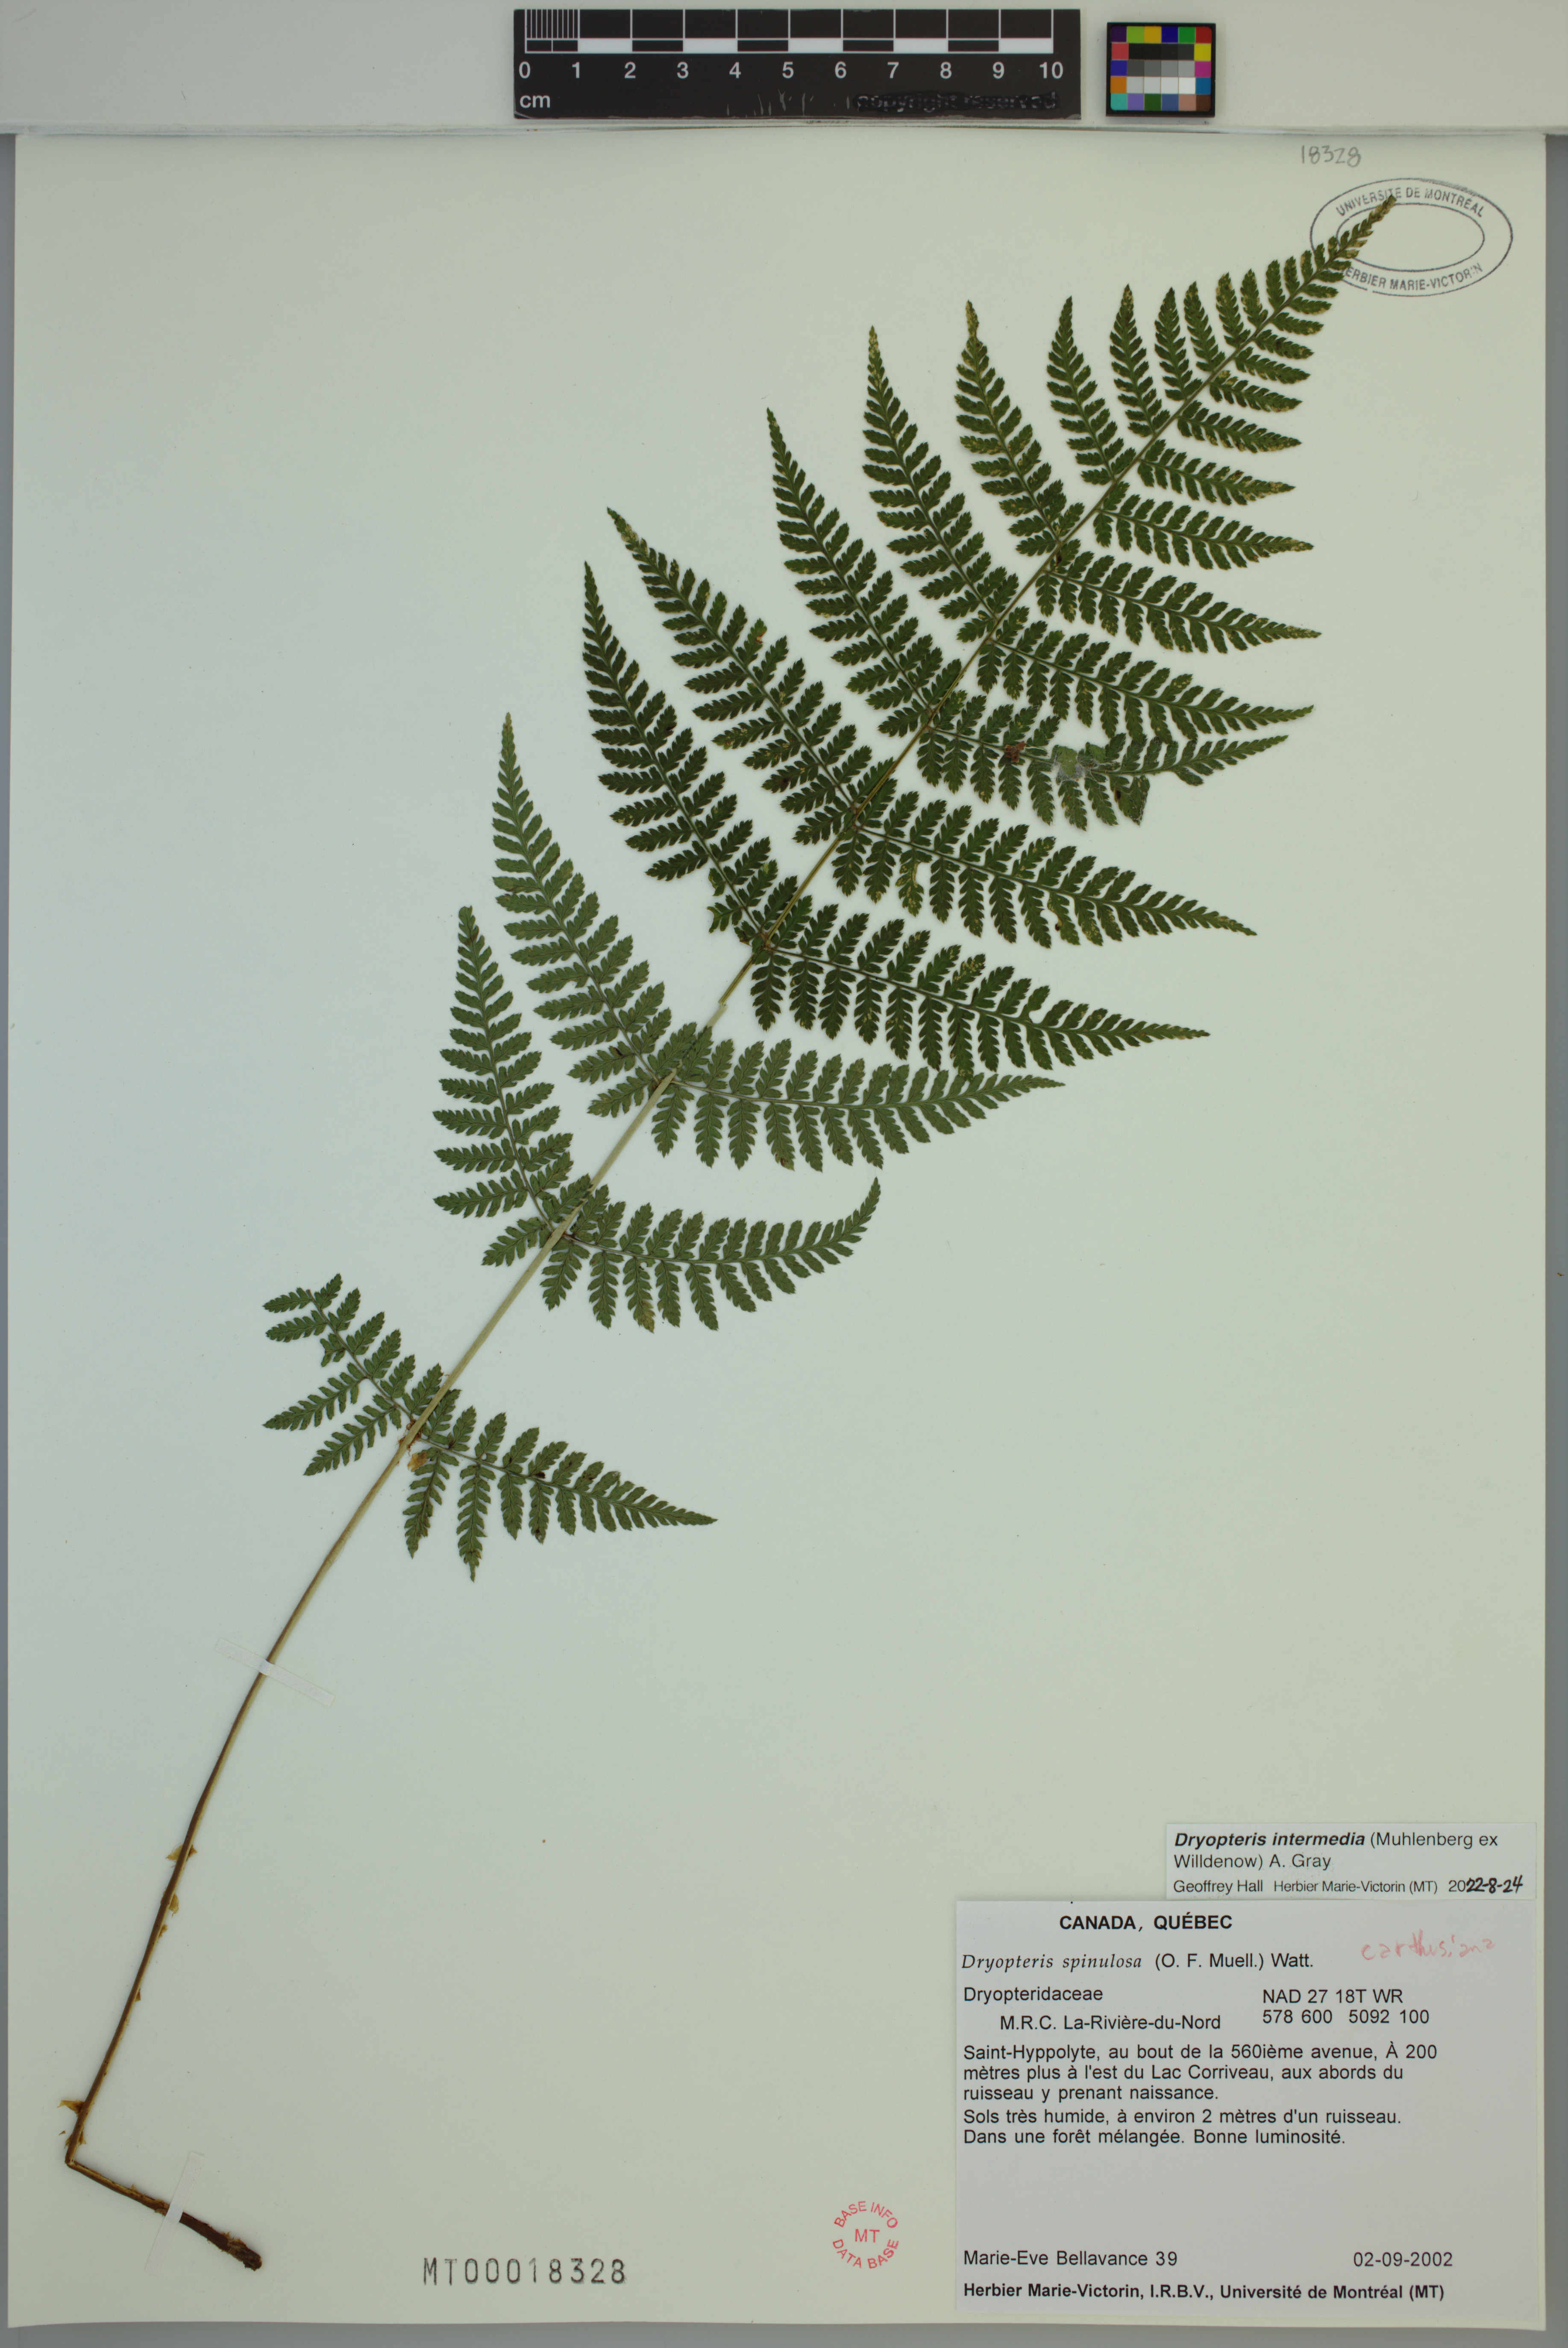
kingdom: Plantae
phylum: Tracheophyta
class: Polypodiopsida
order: Polypodiales
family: Dryopteridaceae
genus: Dryopteris
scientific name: Dryopteris intermedia
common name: Evergreen wood fern
